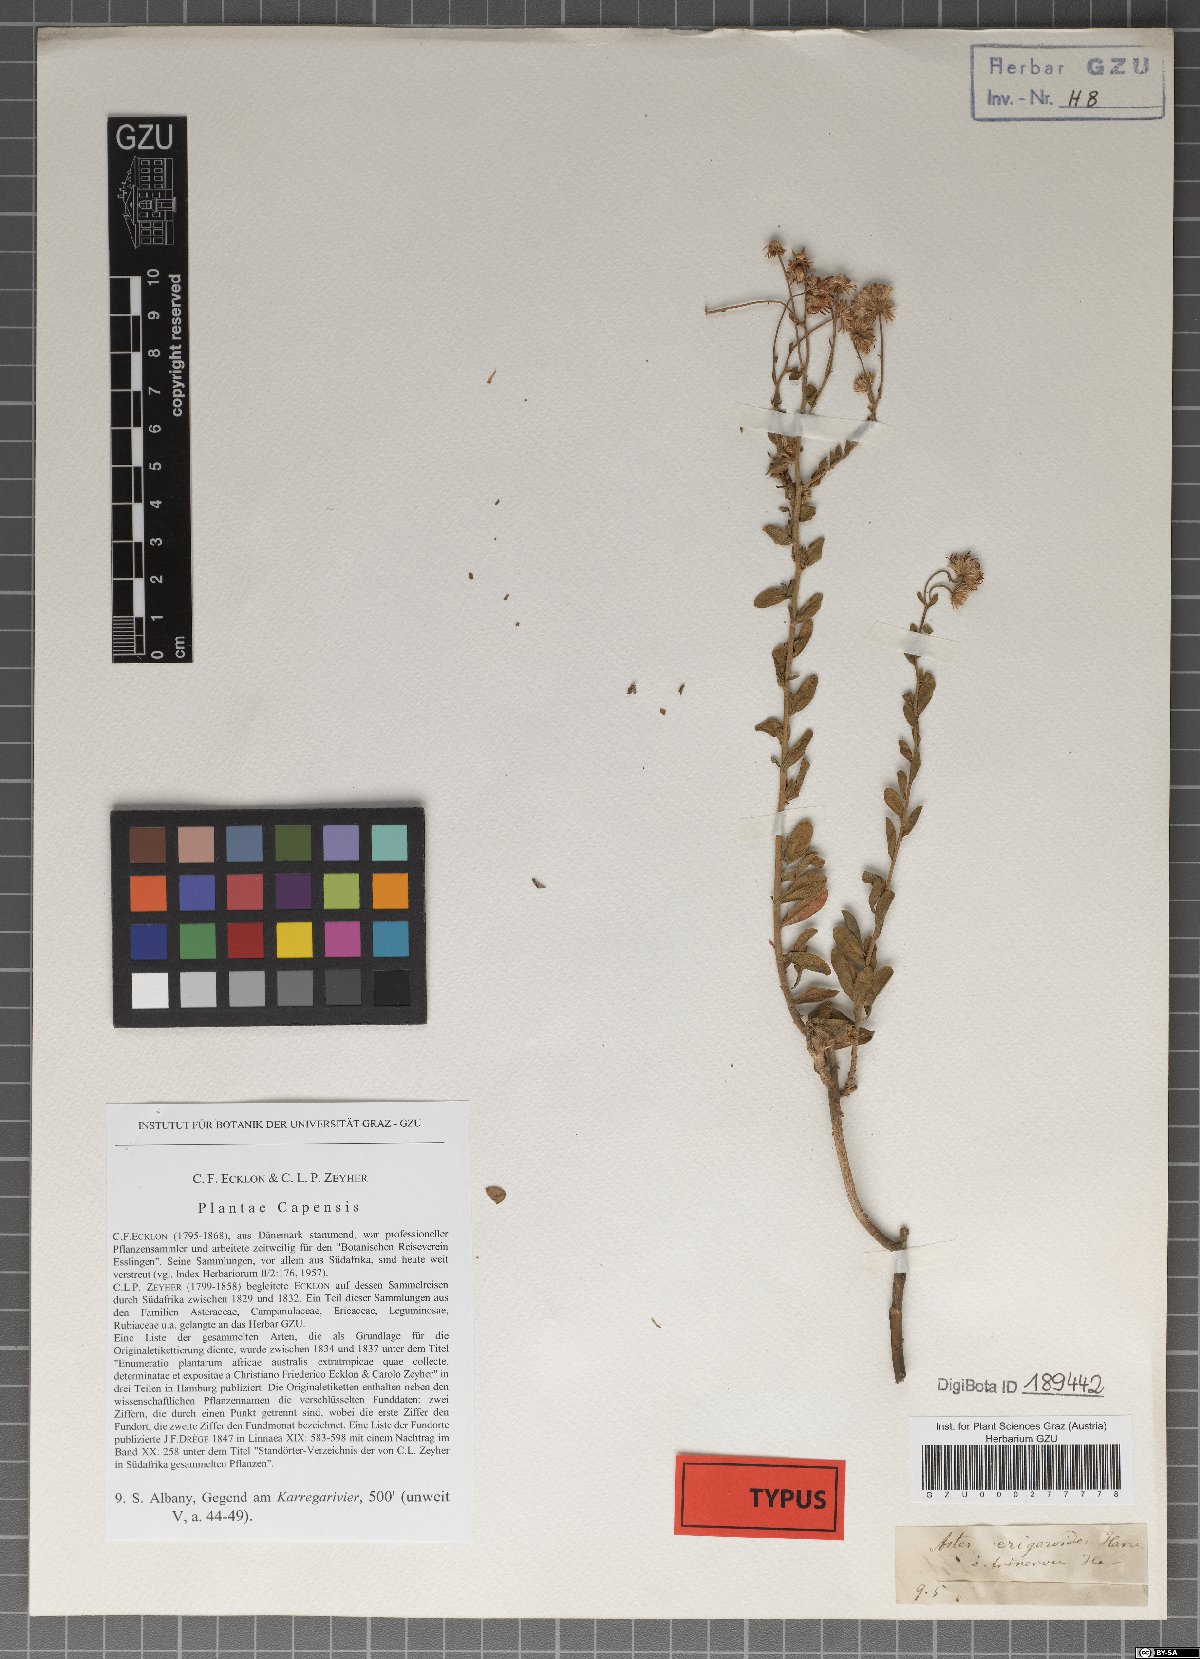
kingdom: Plantae
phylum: Tracheophyta
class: Magnoliopsida
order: Asterales
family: Asteraceae
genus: Felicia
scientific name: Felicia erigeroides
